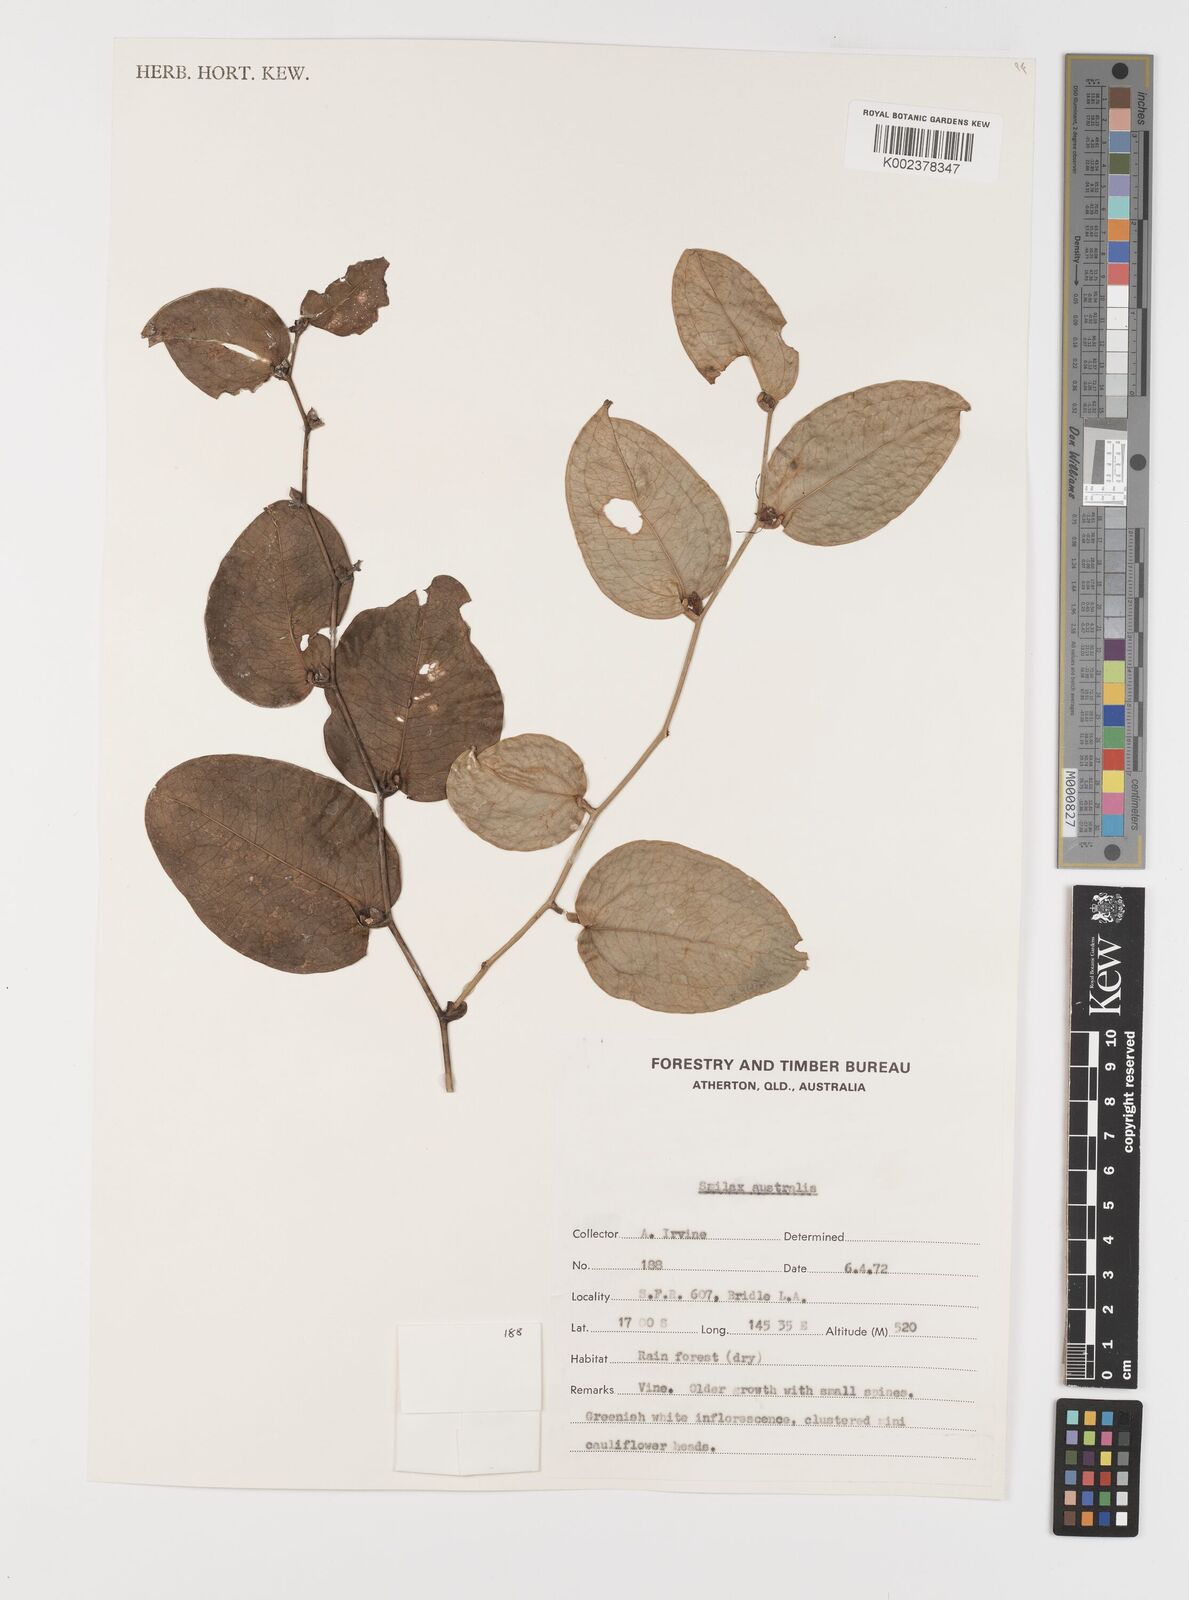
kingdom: Plantae
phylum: Tracheophyta
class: Liliopsida
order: Liliales
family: Smilacaceae
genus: Smilax
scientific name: Smilax australis
